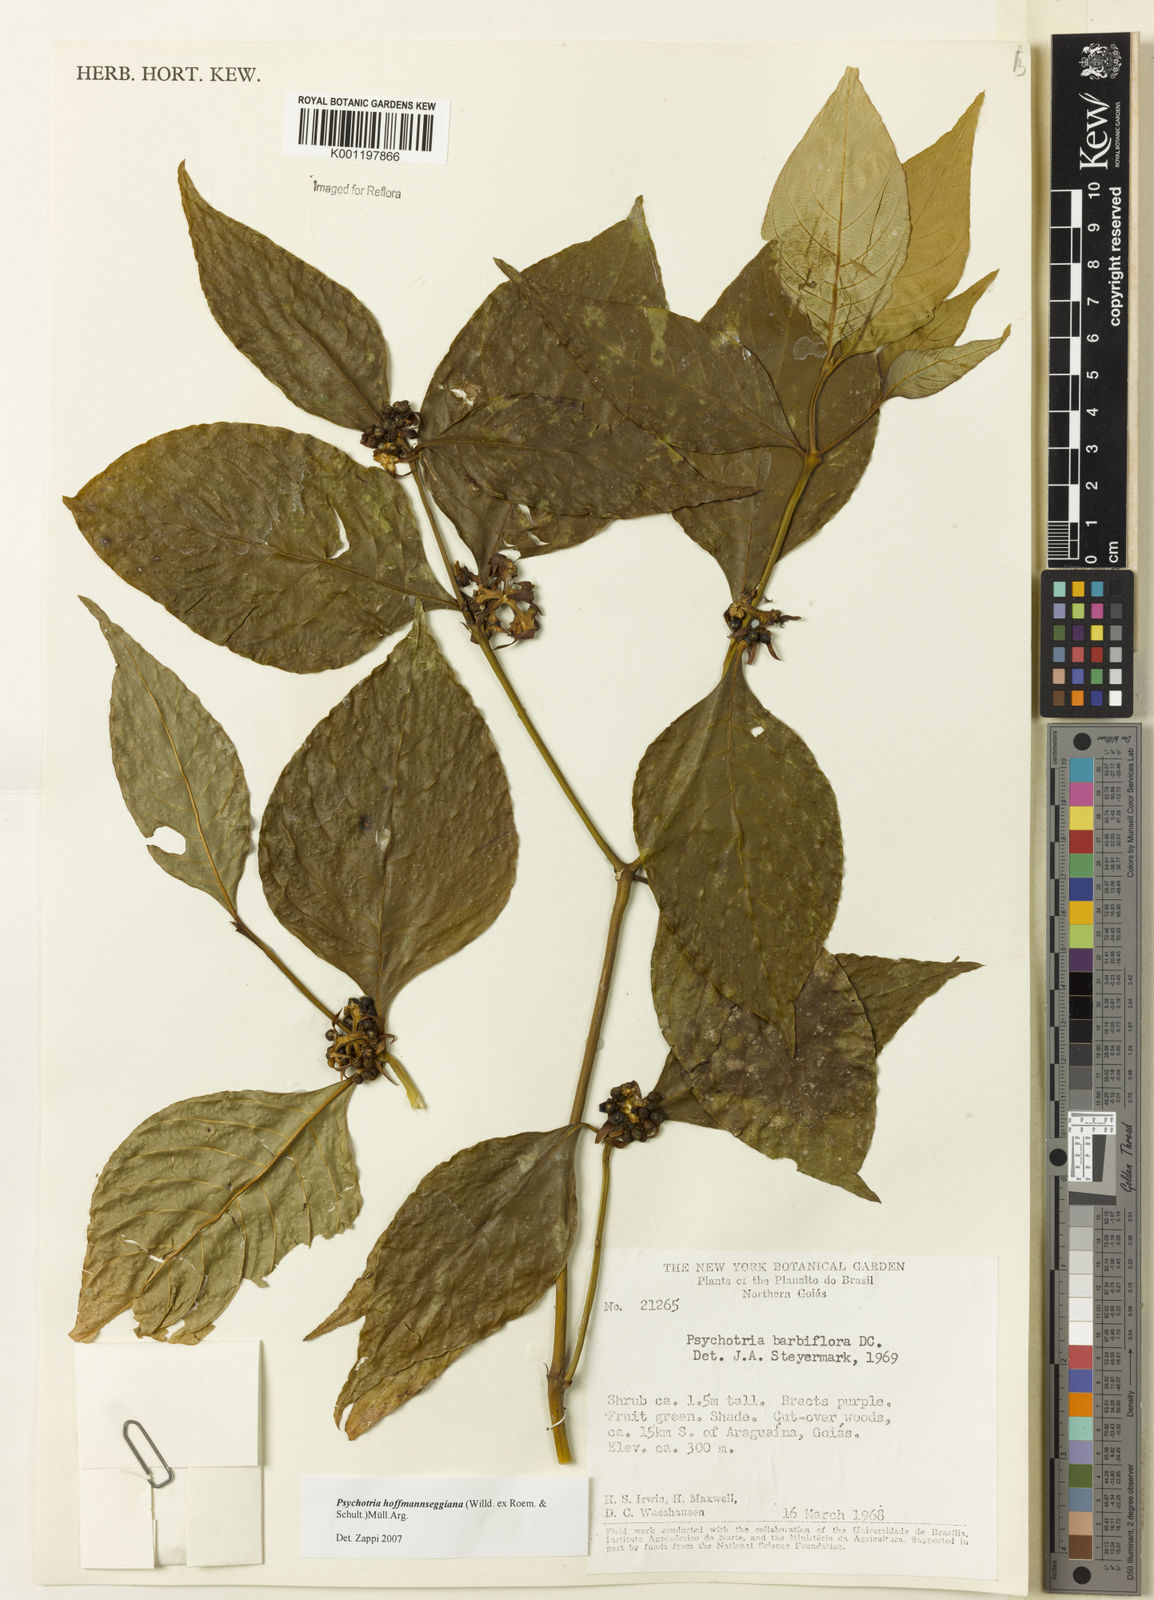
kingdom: Plantae
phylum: Tracheophyta
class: Magnoliopsida
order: Gentianales
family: Rubiaceae
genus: Psychotria
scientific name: Psychotria
